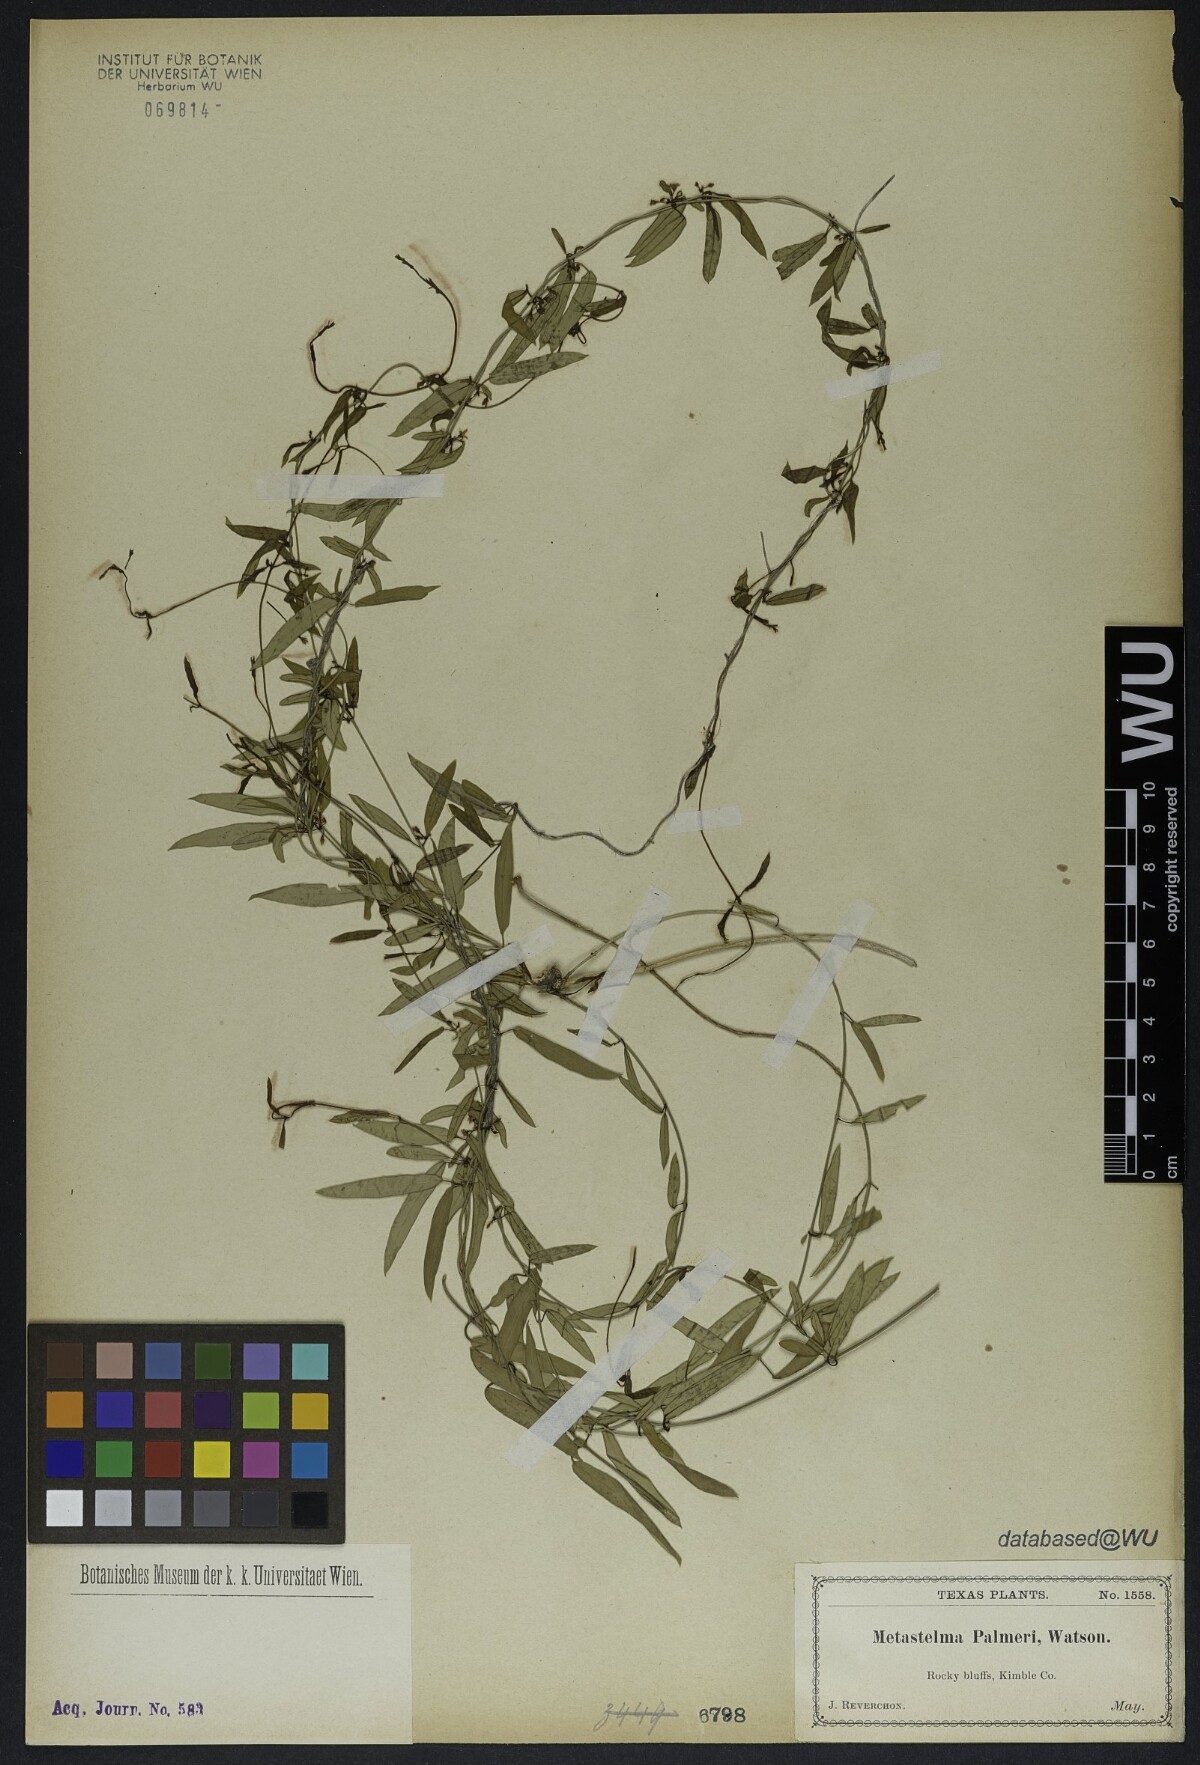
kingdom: Plantae
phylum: Tracheophyta
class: Magnoliopsida
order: Gentianales
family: Apocynaceae
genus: Metastelma
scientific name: Metastelma palmeri
